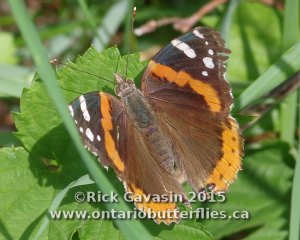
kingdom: Animalia
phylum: Arthropoda
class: Insecta
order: Lepidoptera
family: Nymphalidae
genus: Vanessa
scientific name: Vanessa atalanta
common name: Red Admiral
